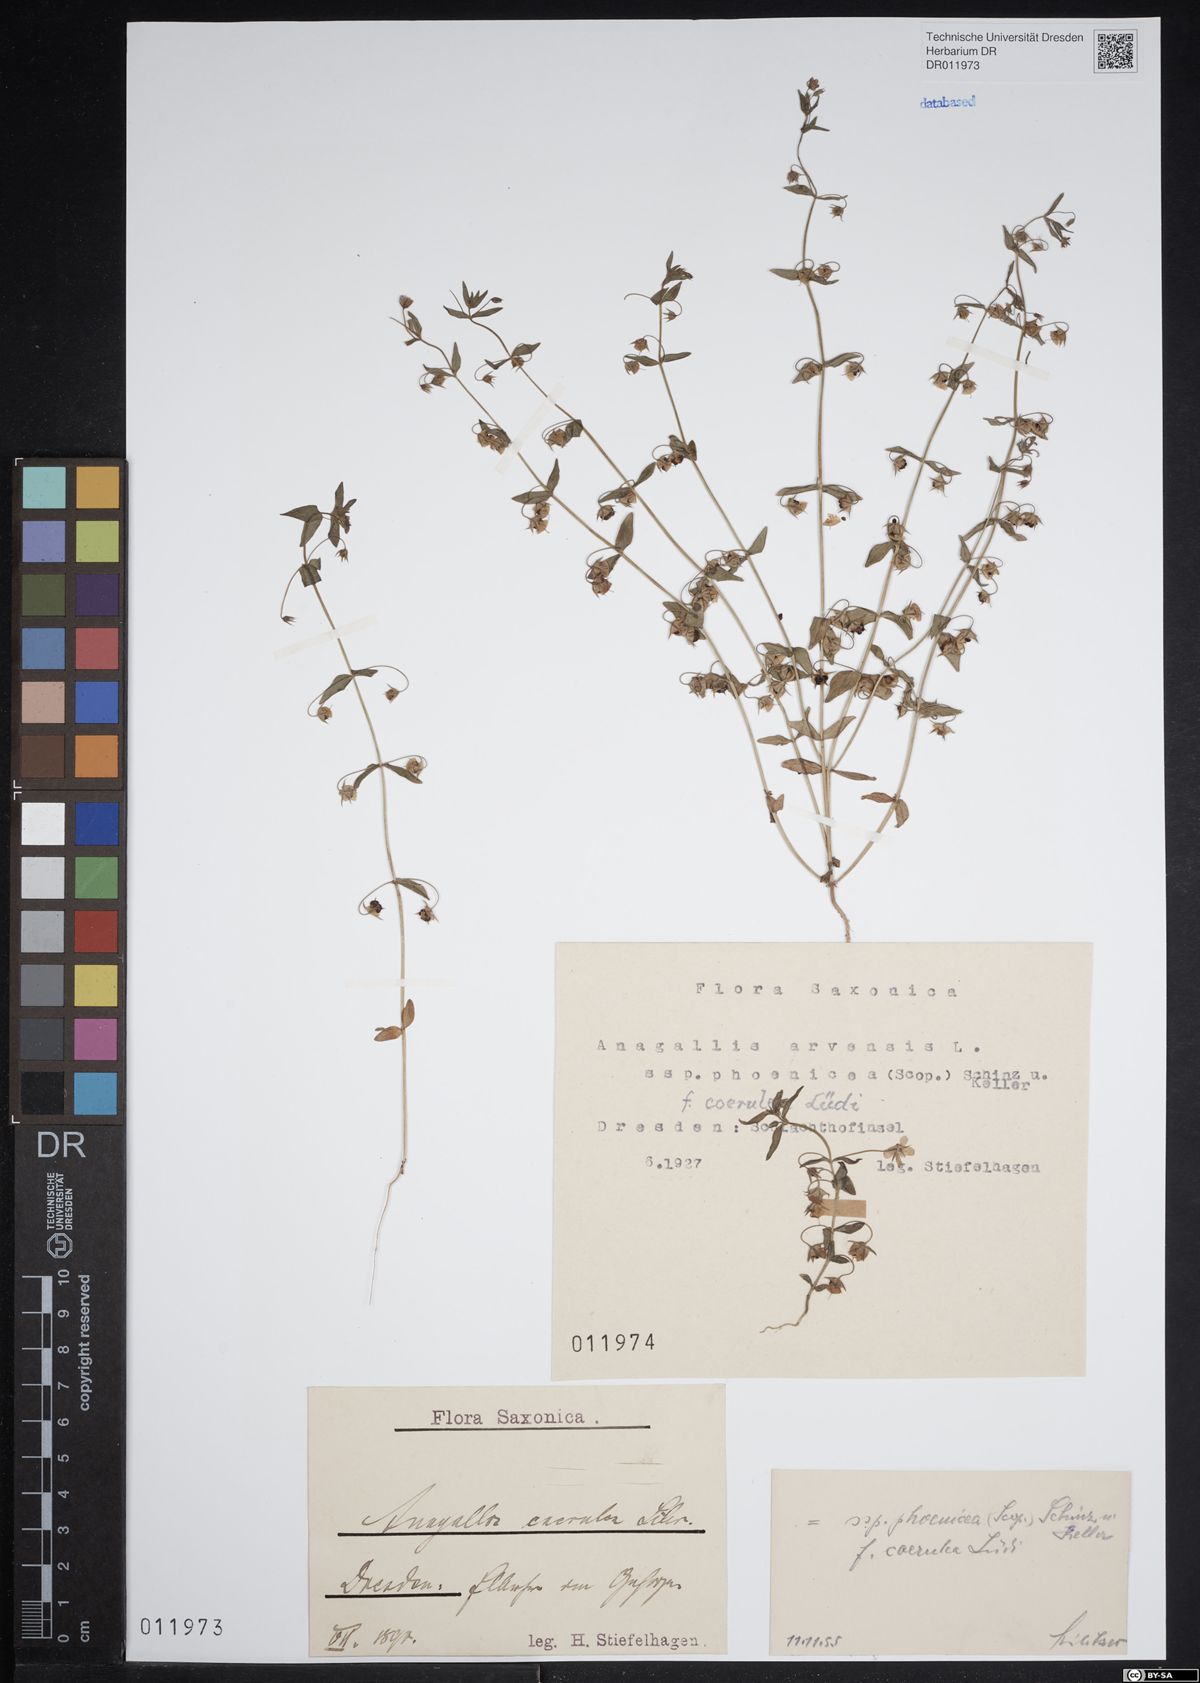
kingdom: Plantae
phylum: Tracheophyta
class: Magnoliopsida
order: Ericales
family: Primulaceae
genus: Lysimachia
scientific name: Lysimachia arvensis
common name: Scarlet pimpernel
